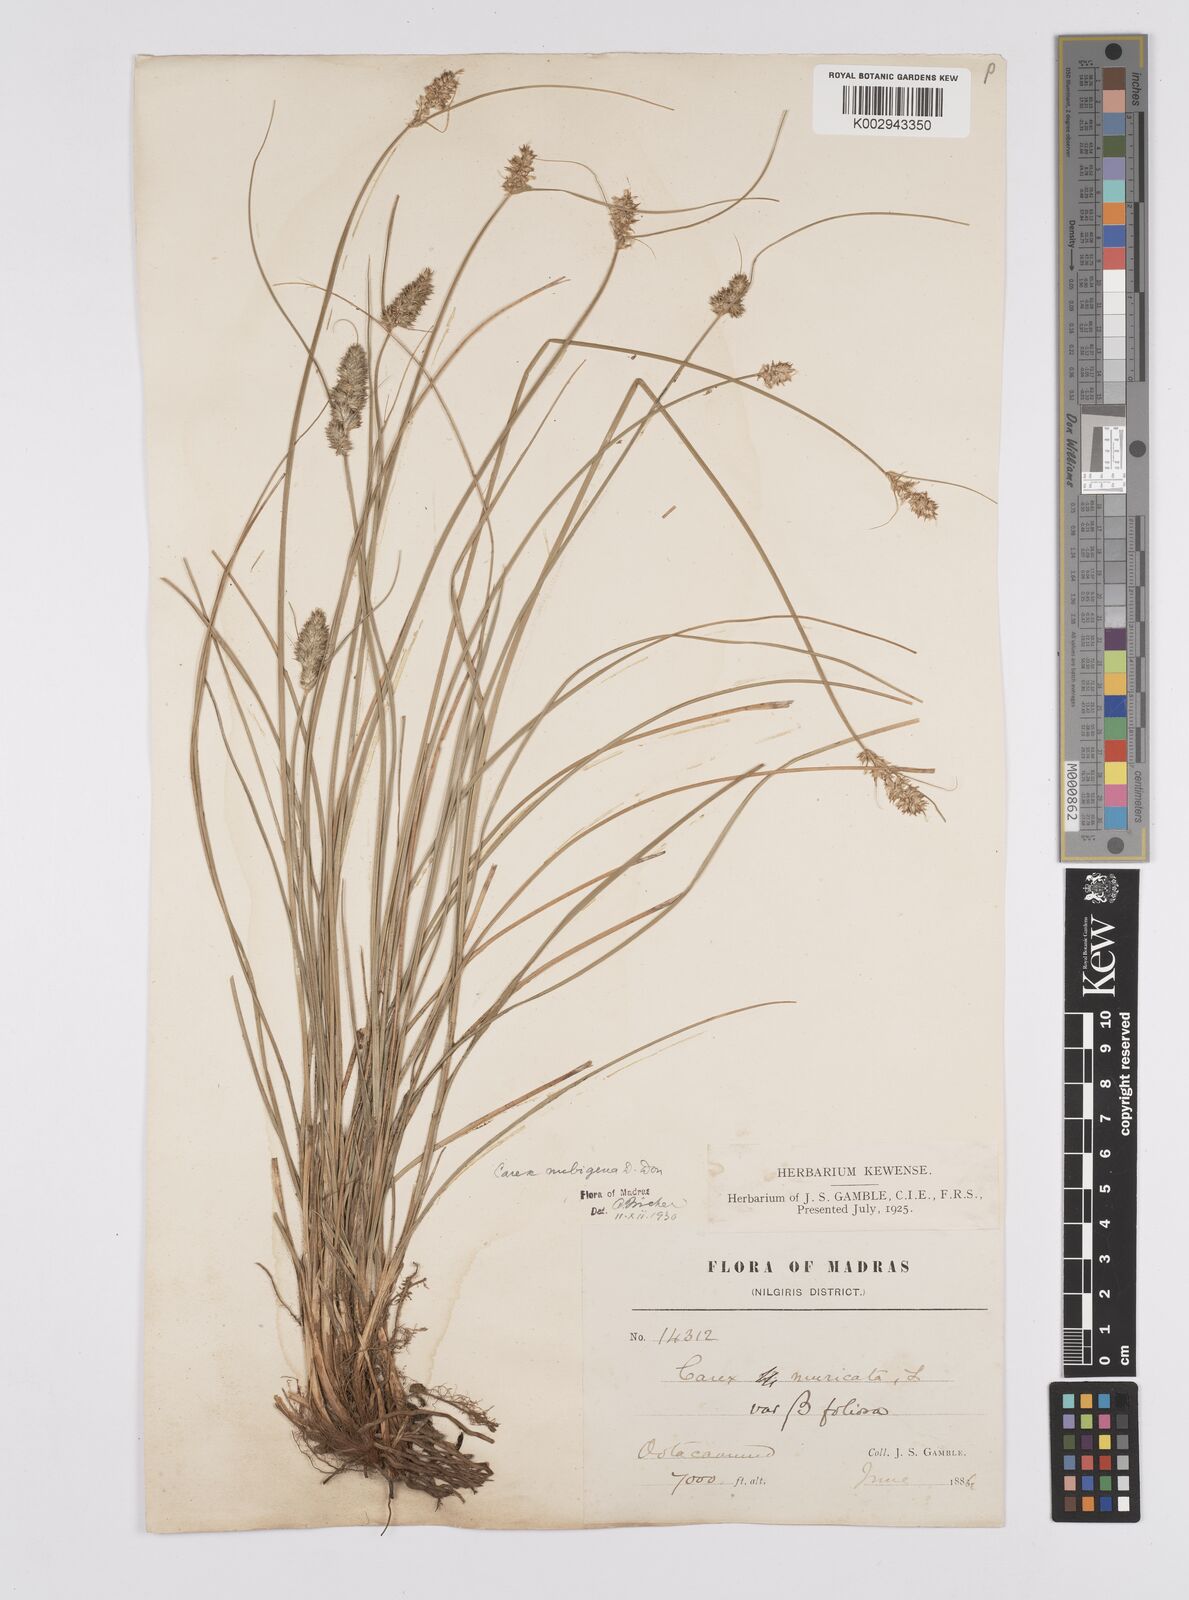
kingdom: Plantae
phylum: Tracheophyta
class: Liliopsida
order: Poales
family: Cyperaceae
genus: Carex
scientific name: Carex nubigena
